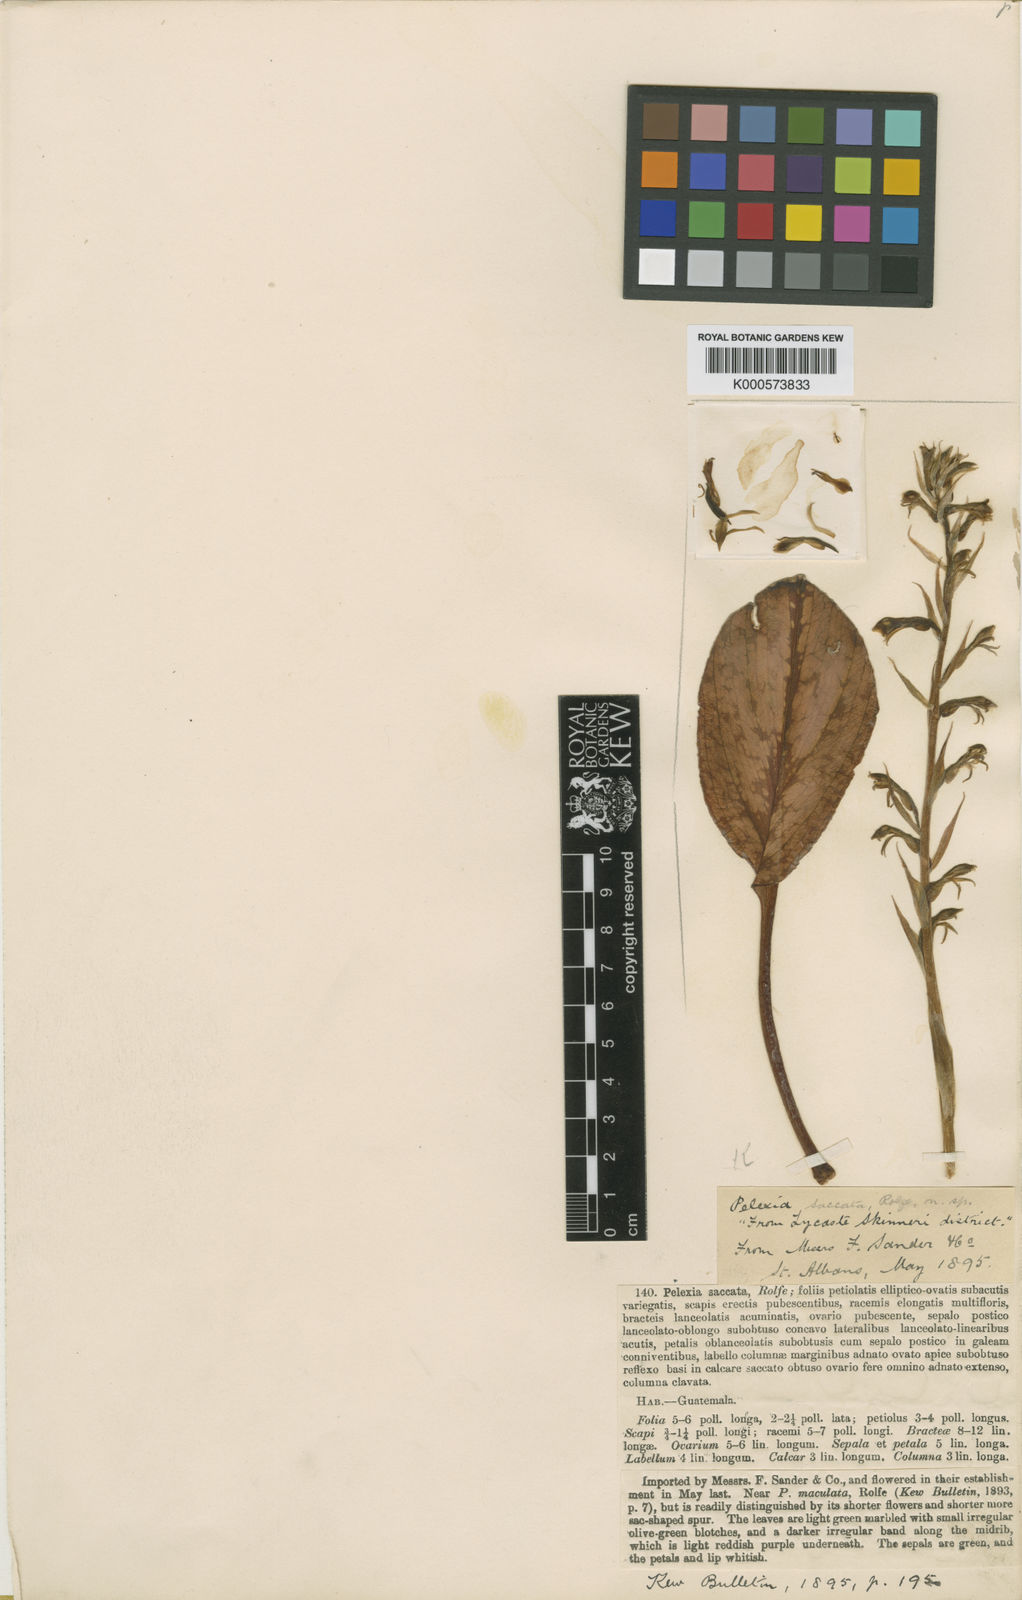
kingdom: Plantae
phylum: Tracheophyta
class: Liliopsida
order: Asparagales
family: Orchidaceae
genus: Sarcoglottis
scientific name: Sarcoglottis schaffneri
